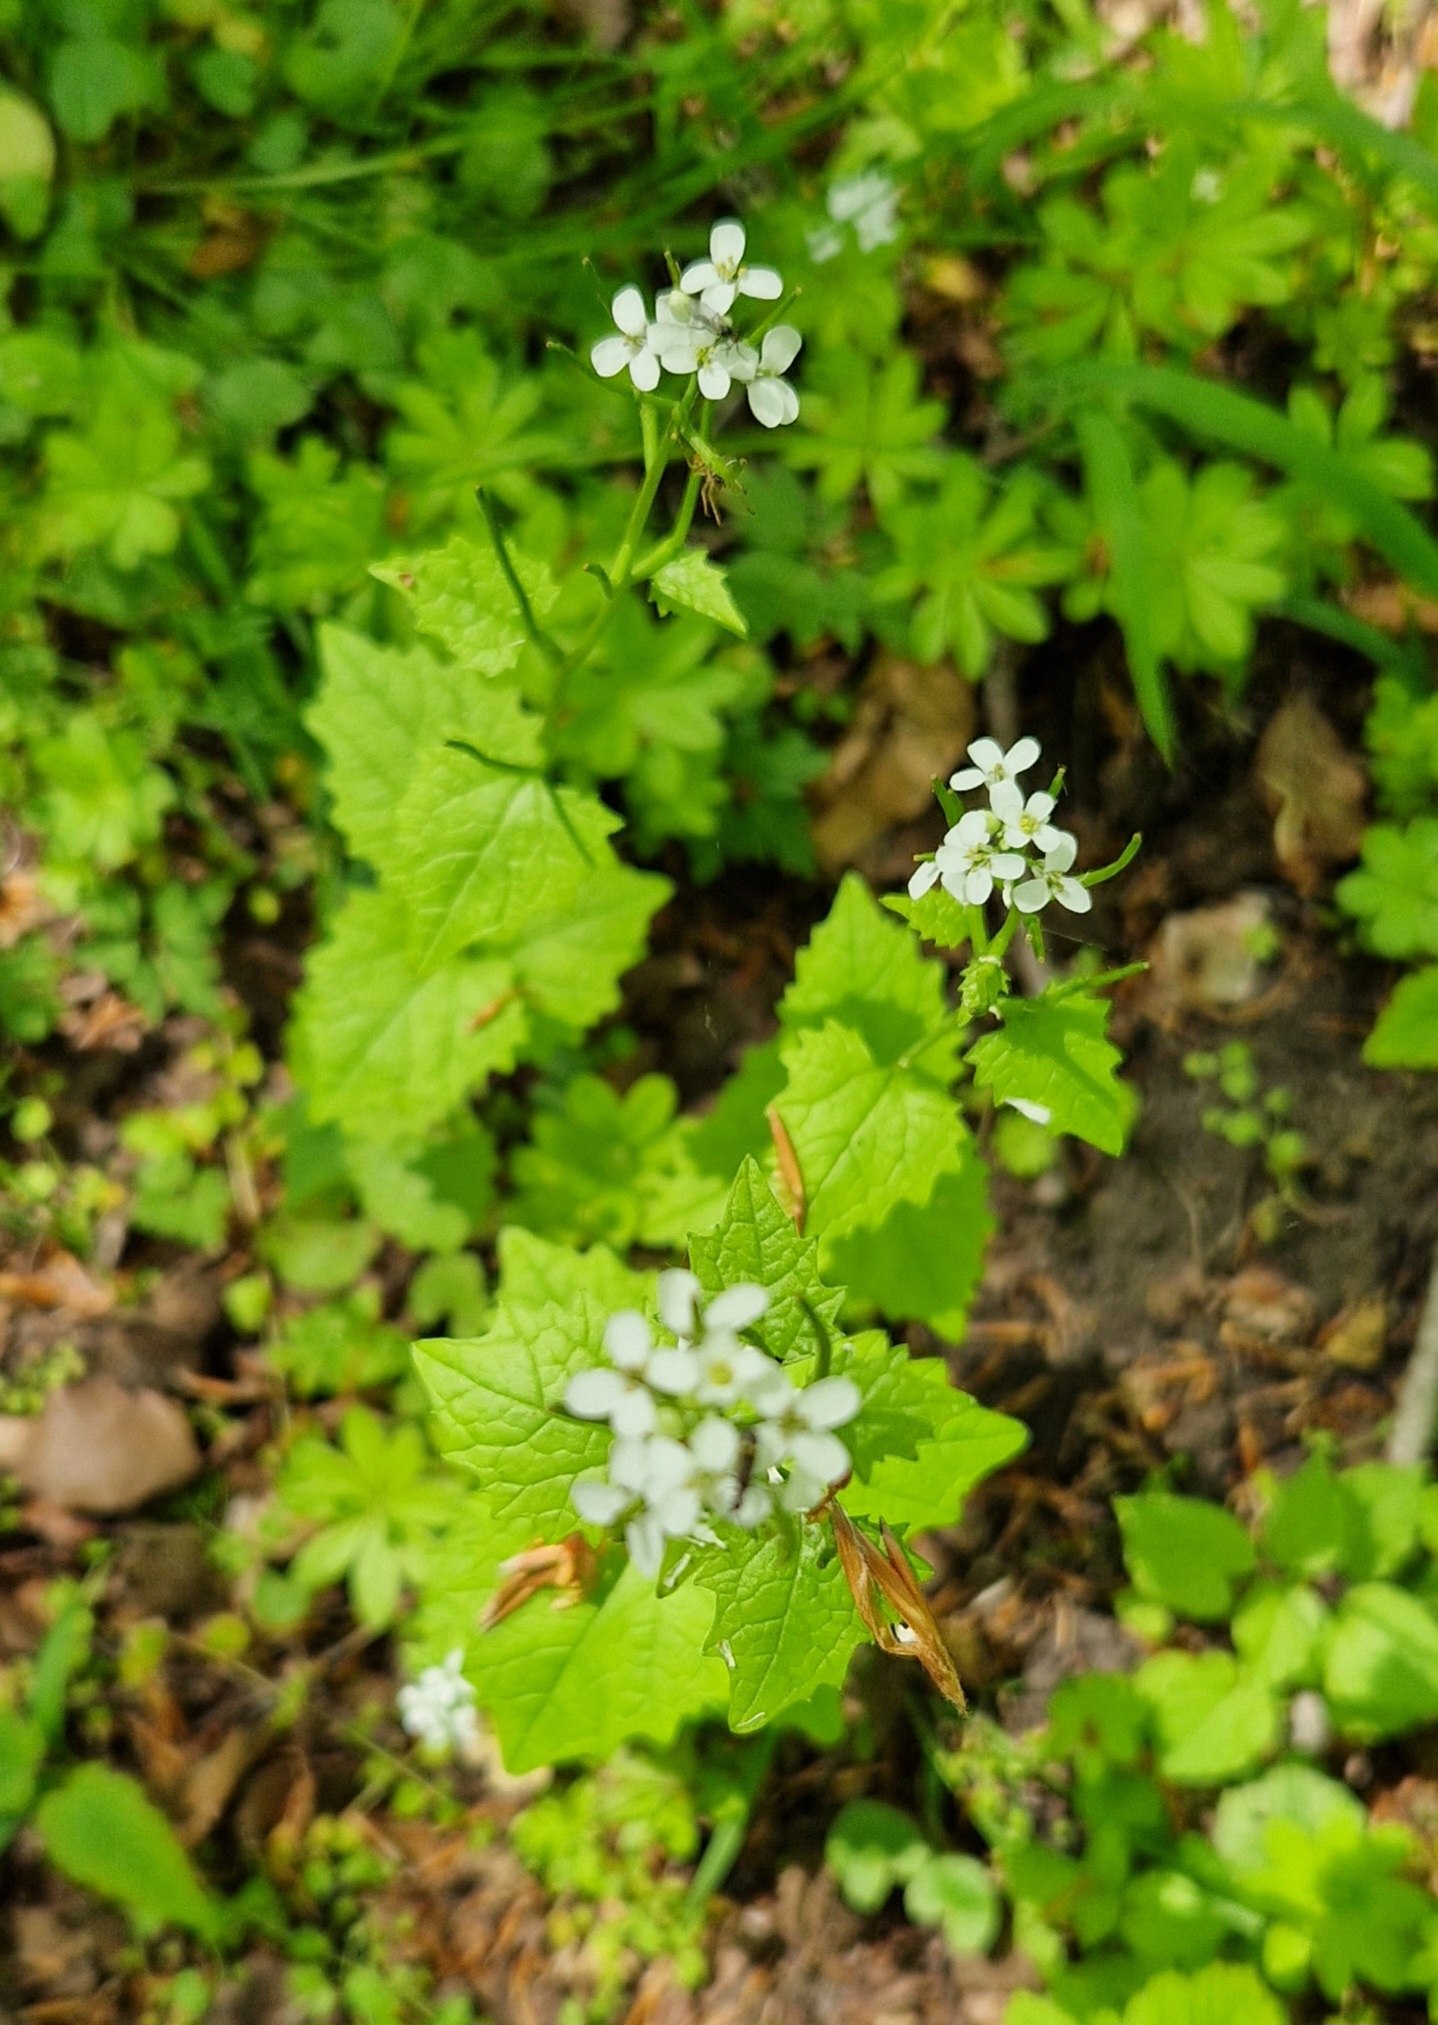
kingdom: Plantae
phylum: Tracheophyta
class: Magnoliopsida
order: Brassicales
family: Brassicaceae
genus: Alliaria
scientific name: Alliaria petiolata
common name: Løgkarse
